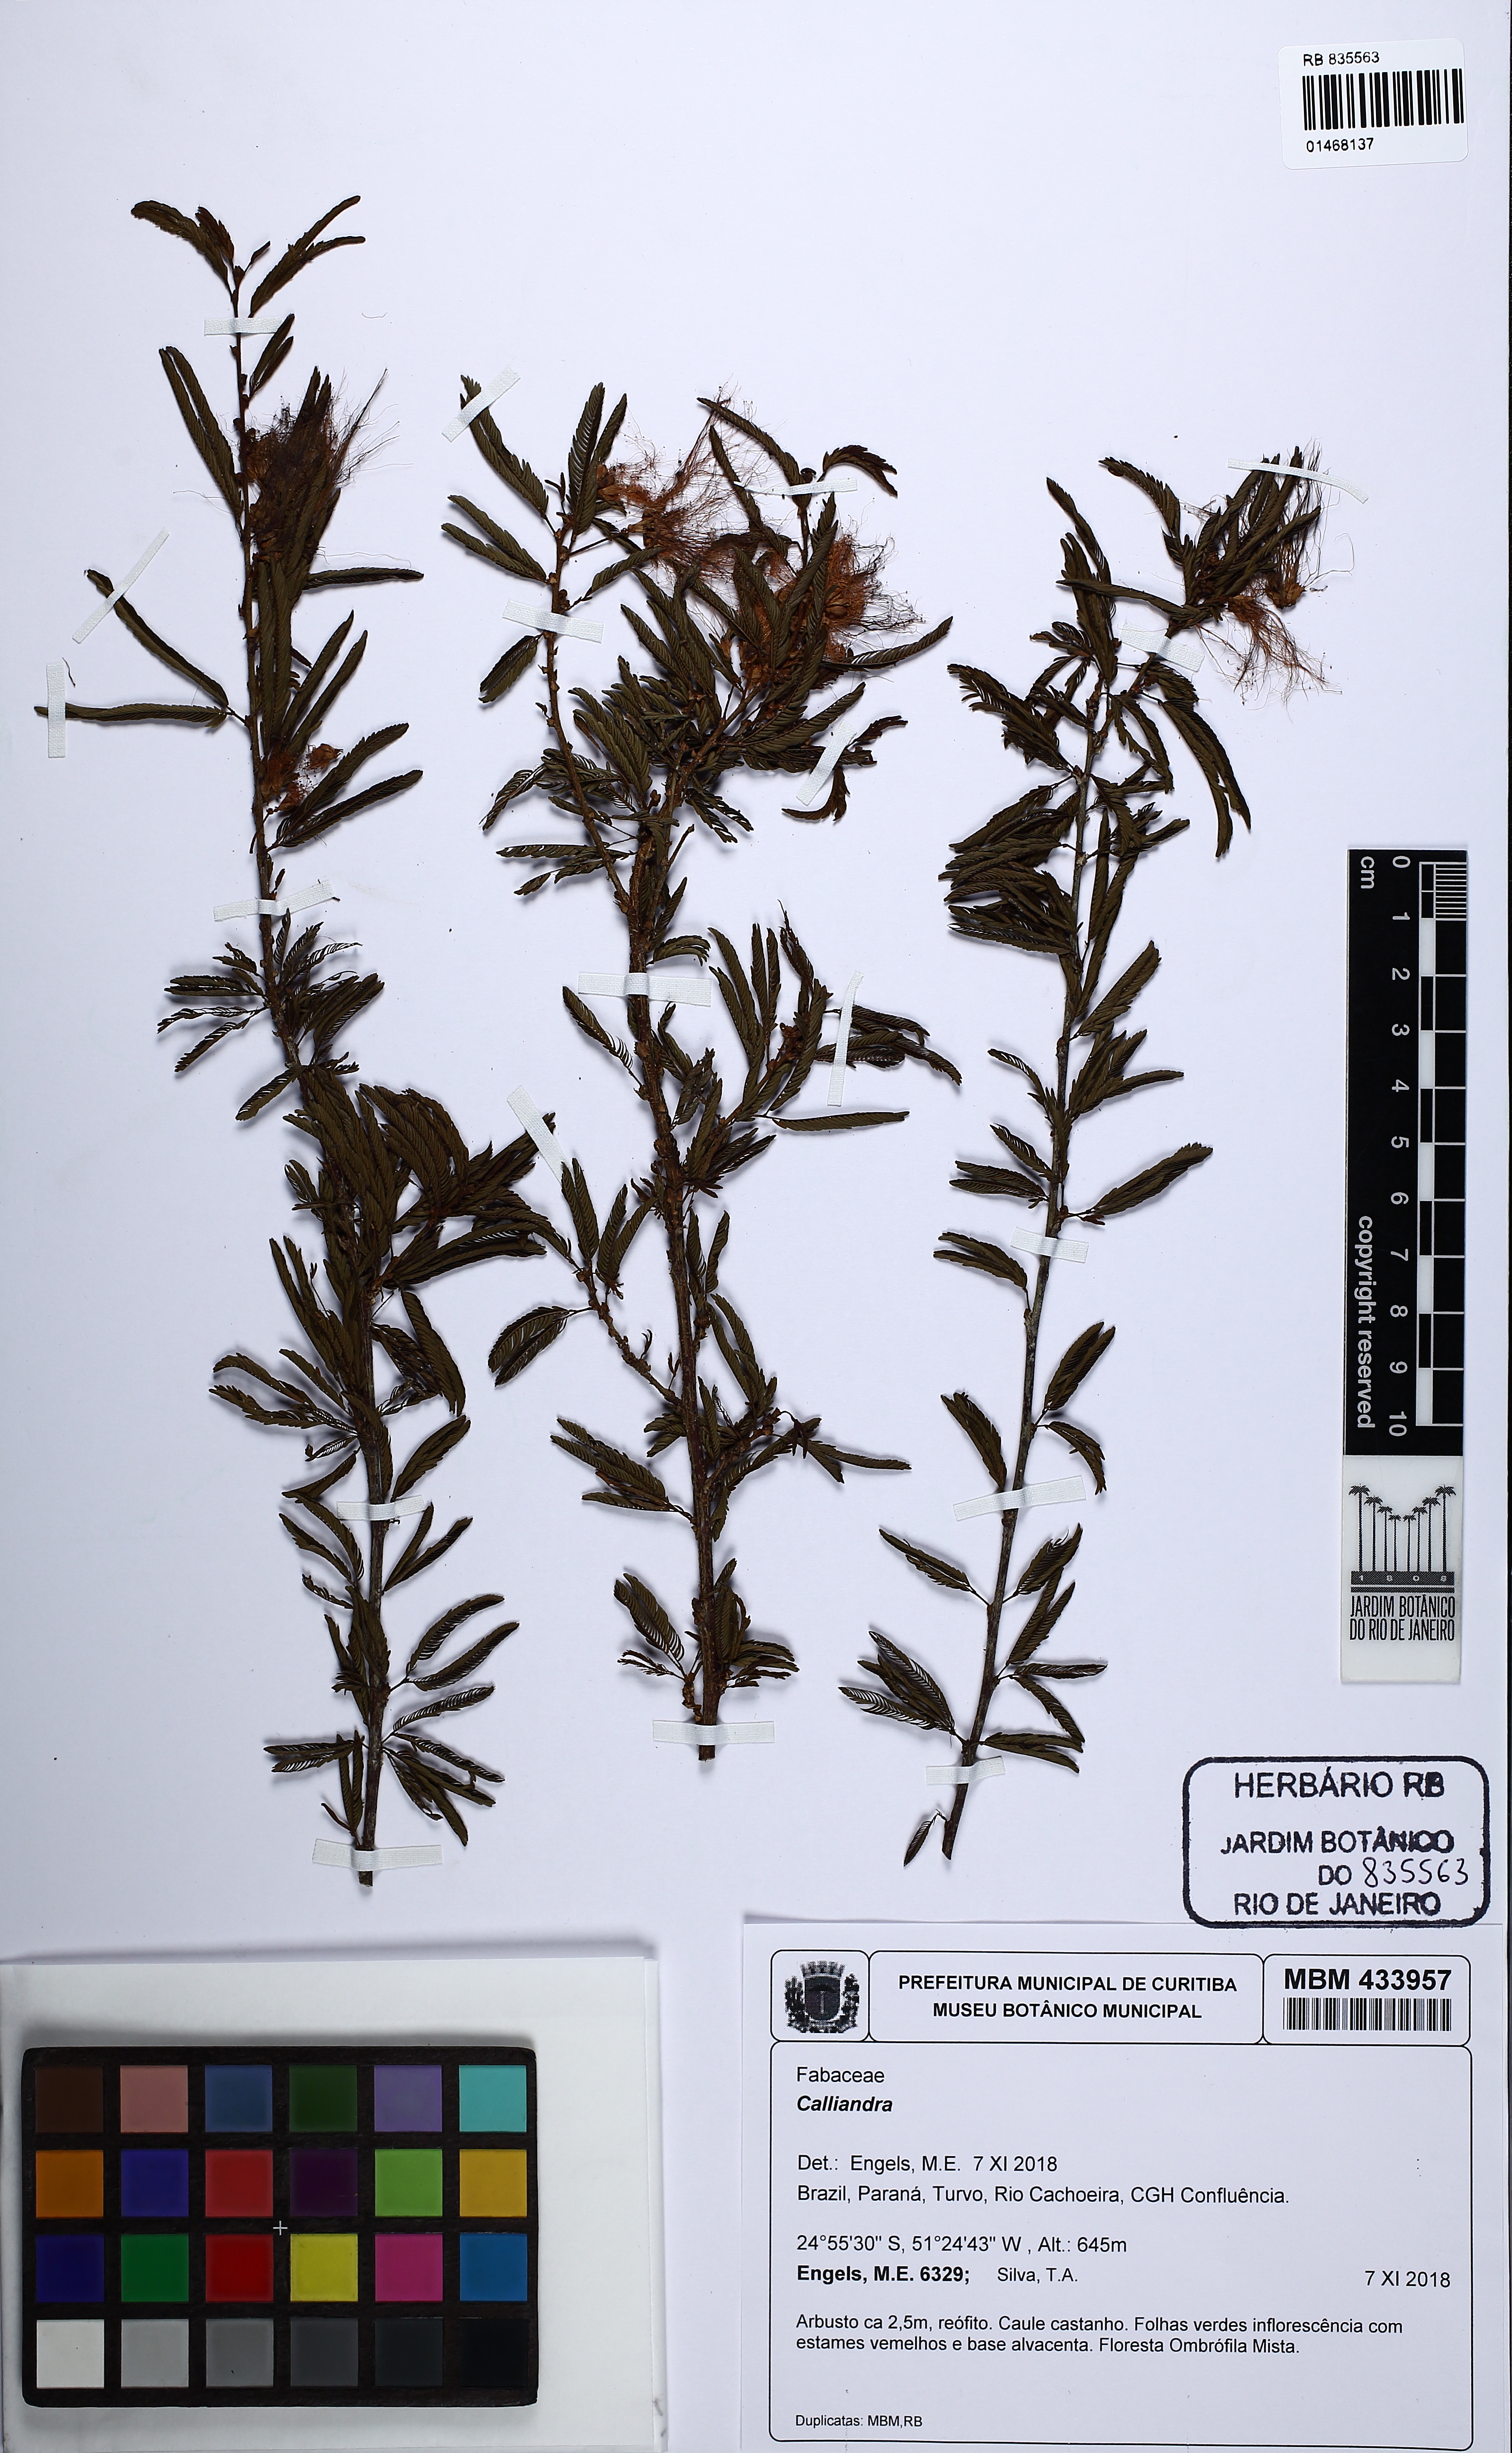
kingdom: Plantae
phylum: Tracheophyta
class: Magnoliopsida
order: Fabales
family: Fabaceae
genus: Calliandra
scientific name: Calliandra
